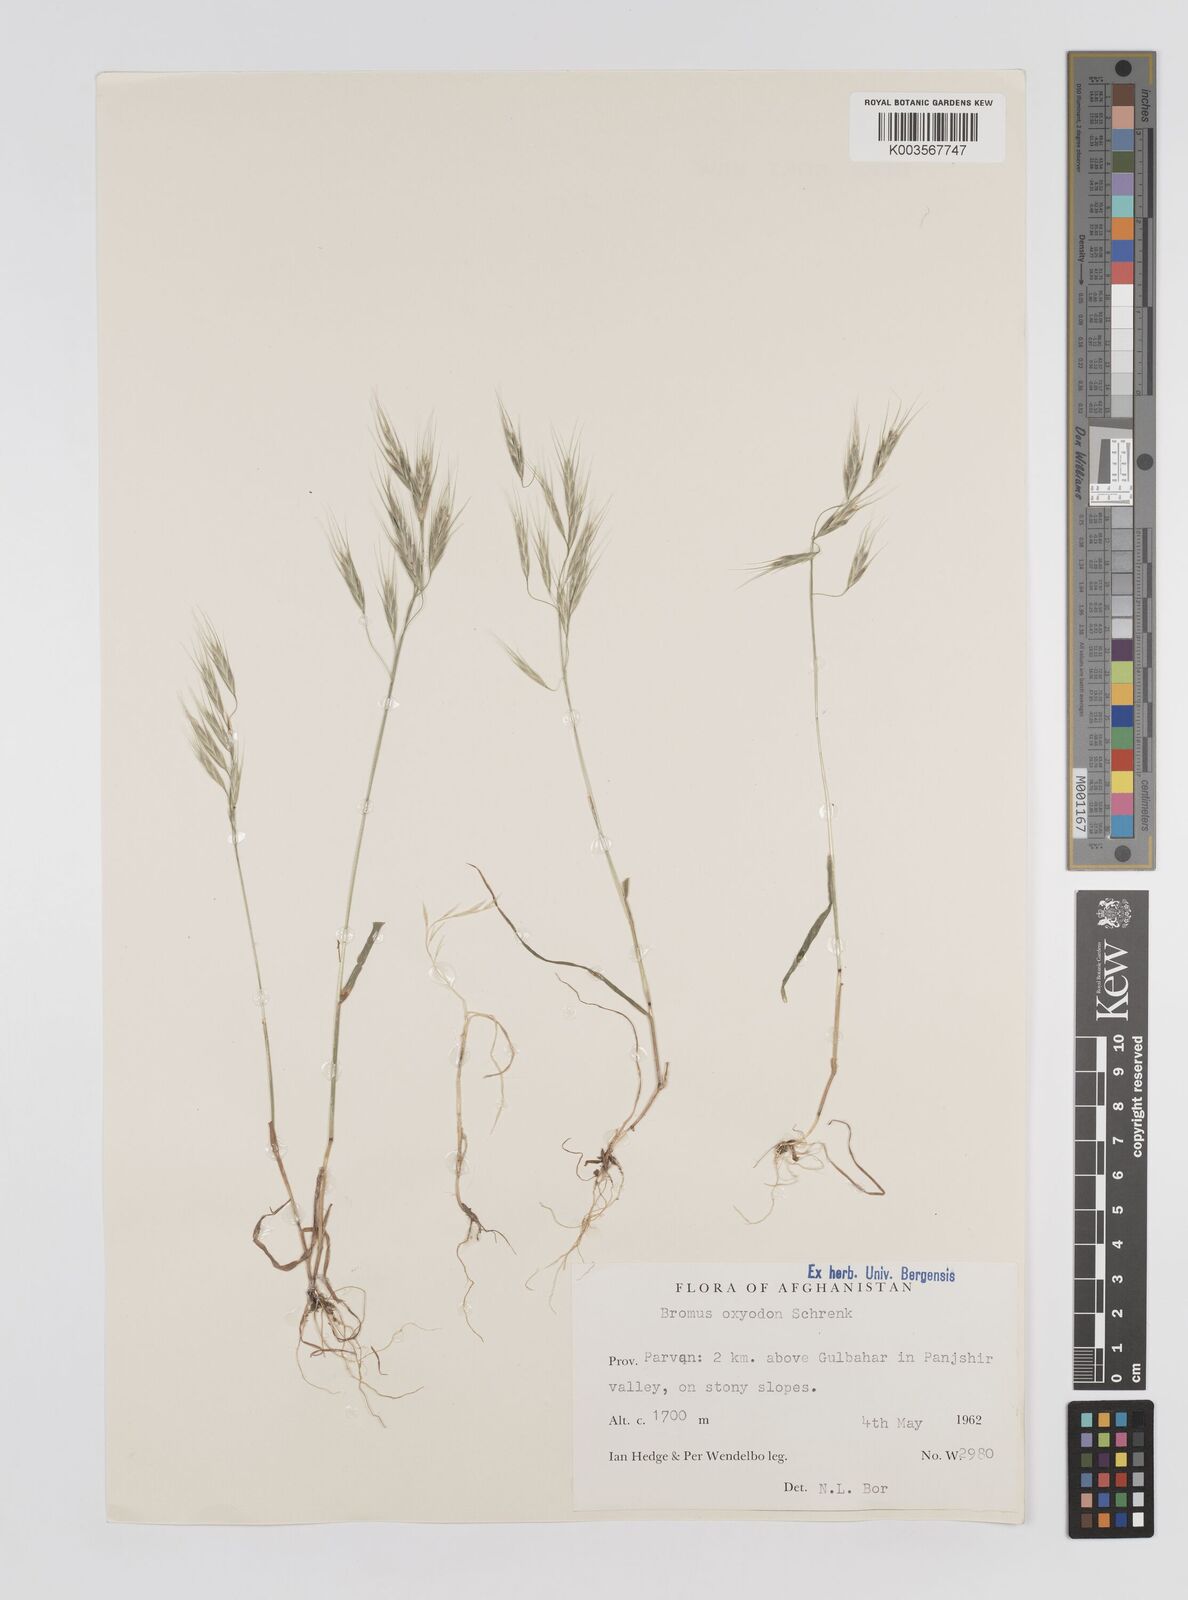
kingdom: Plantae
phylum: Tracheophyta
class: Liliopsida
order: Poales
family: Poaceae
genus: Bromus
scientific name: Bromus
